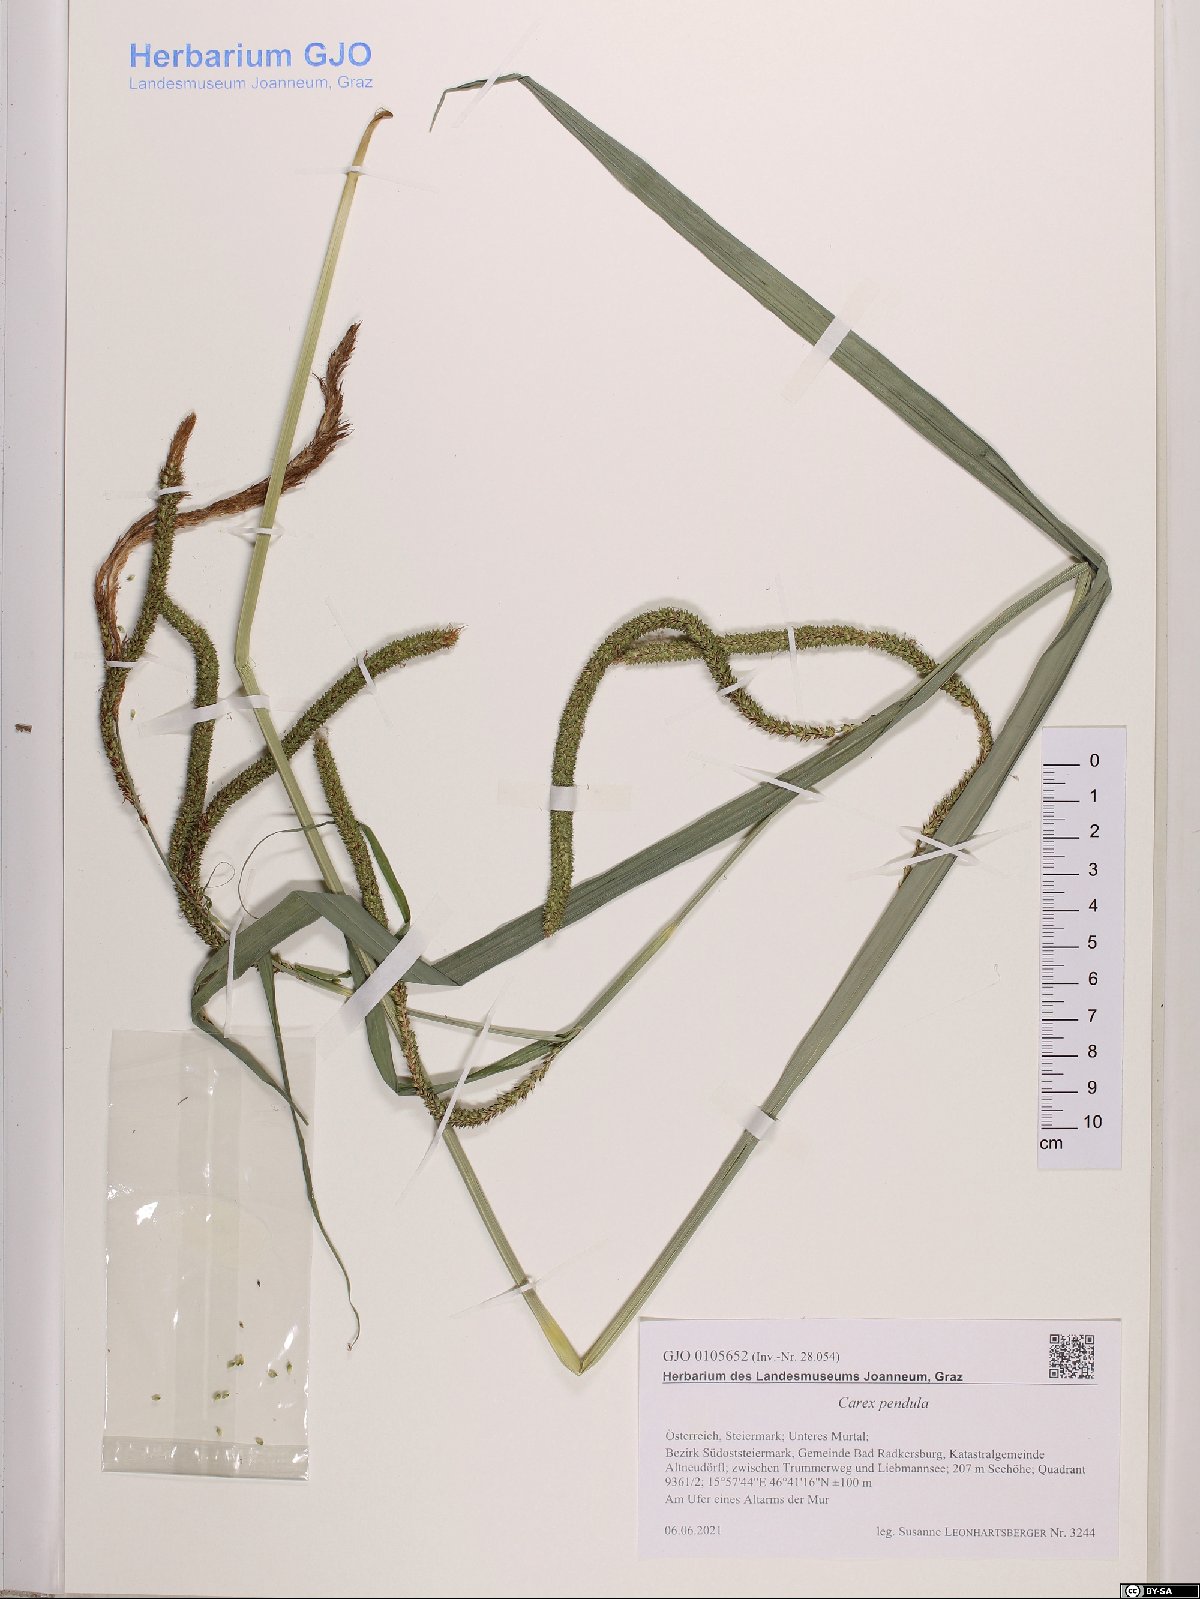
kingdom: Plantae
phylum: Tracheophyta
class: Liliopsida
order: Poales
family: Cyperaceae
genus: Carex
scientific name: Carex pendula
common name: Pendulous sedge
